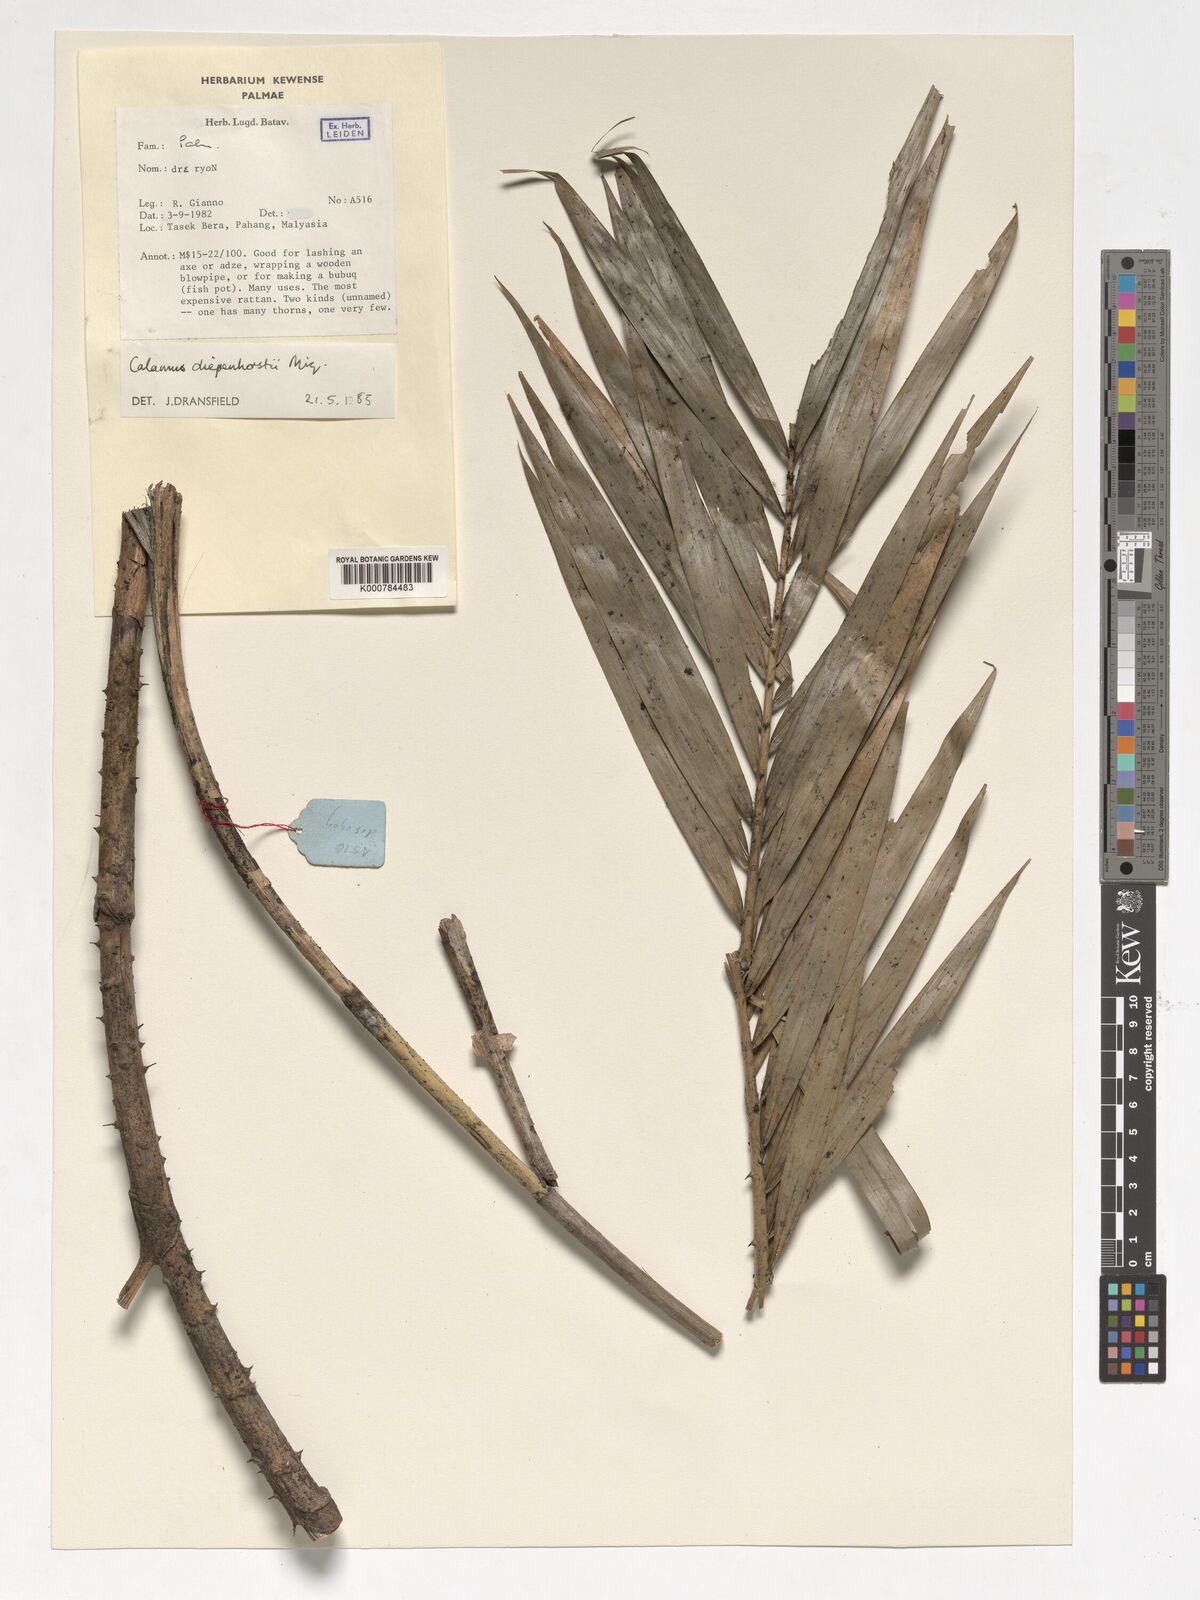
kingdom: Plantae
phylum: Tracheophyta
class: Liliopsida
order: Arecales
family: Arecaceae
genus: Calamus
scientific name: Calamus diepenhorstii
